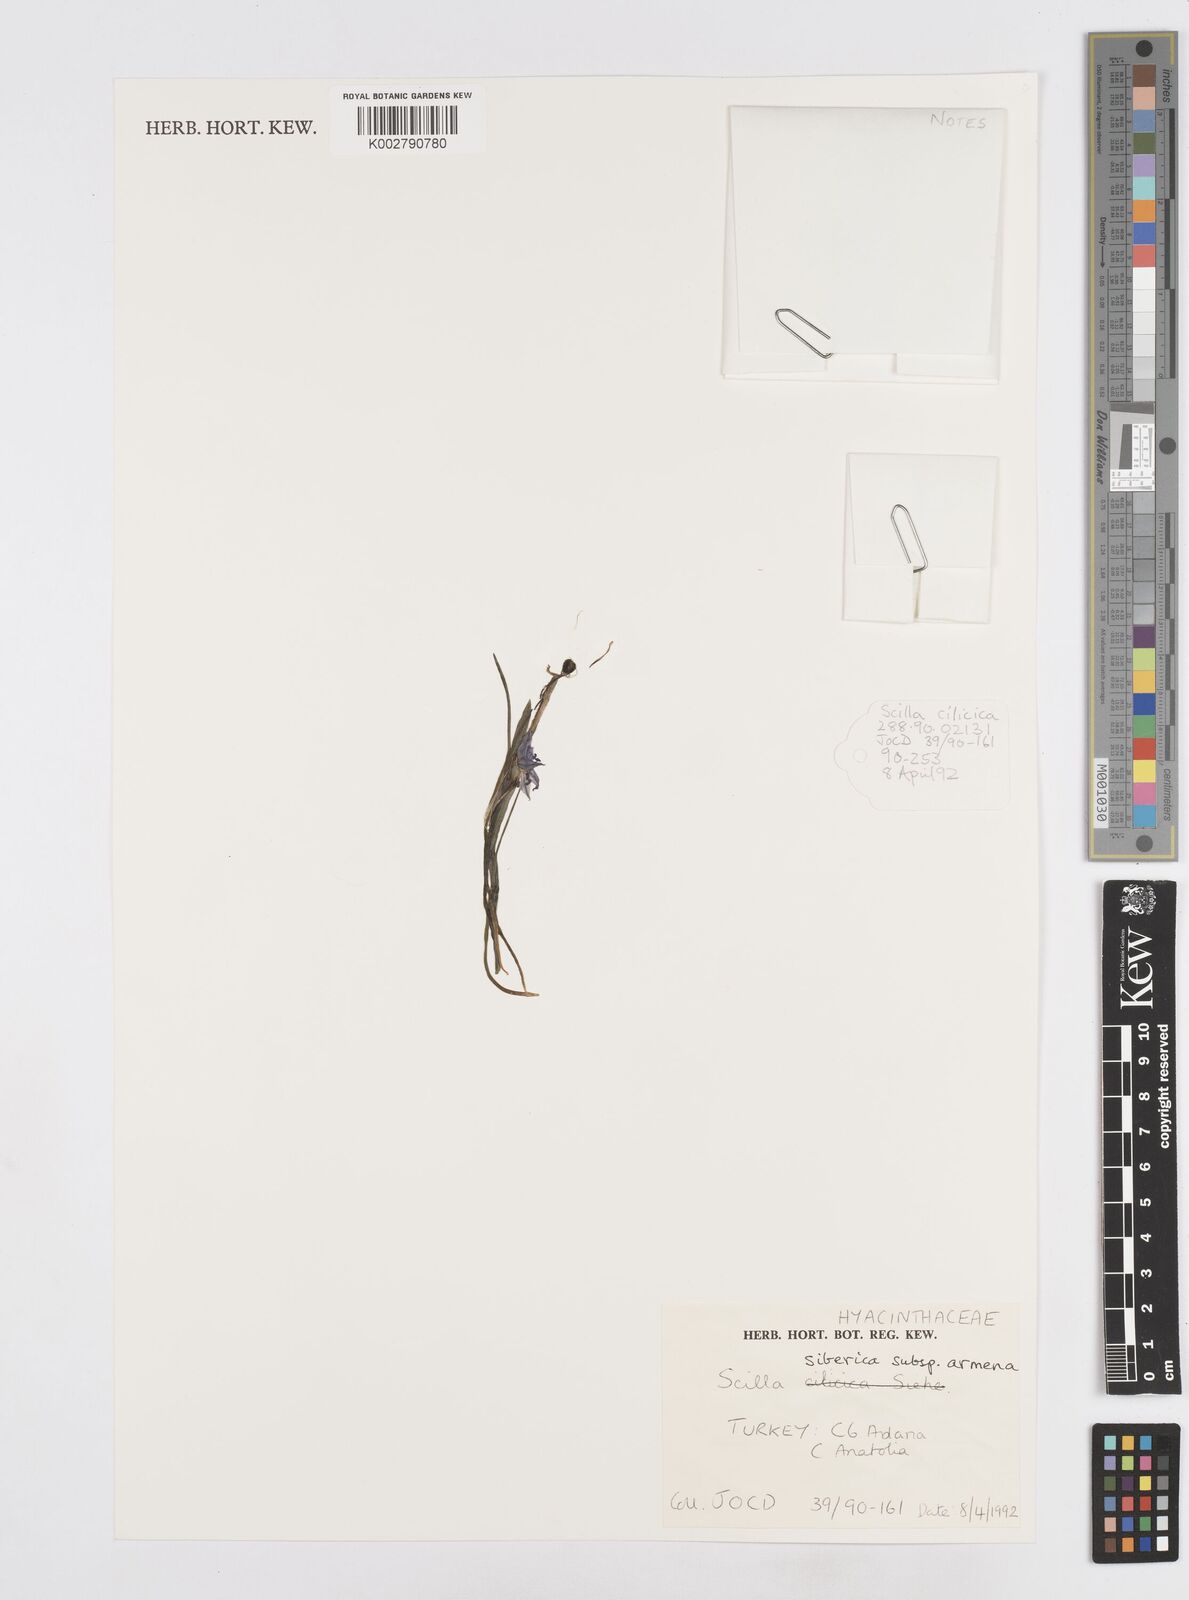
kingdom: Plantae
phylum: Tracheophyta
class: Liliopsida
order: Asparagales
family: Asparagaceae
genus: Scilla
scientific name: Scilla siberica
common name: Siberian squill
